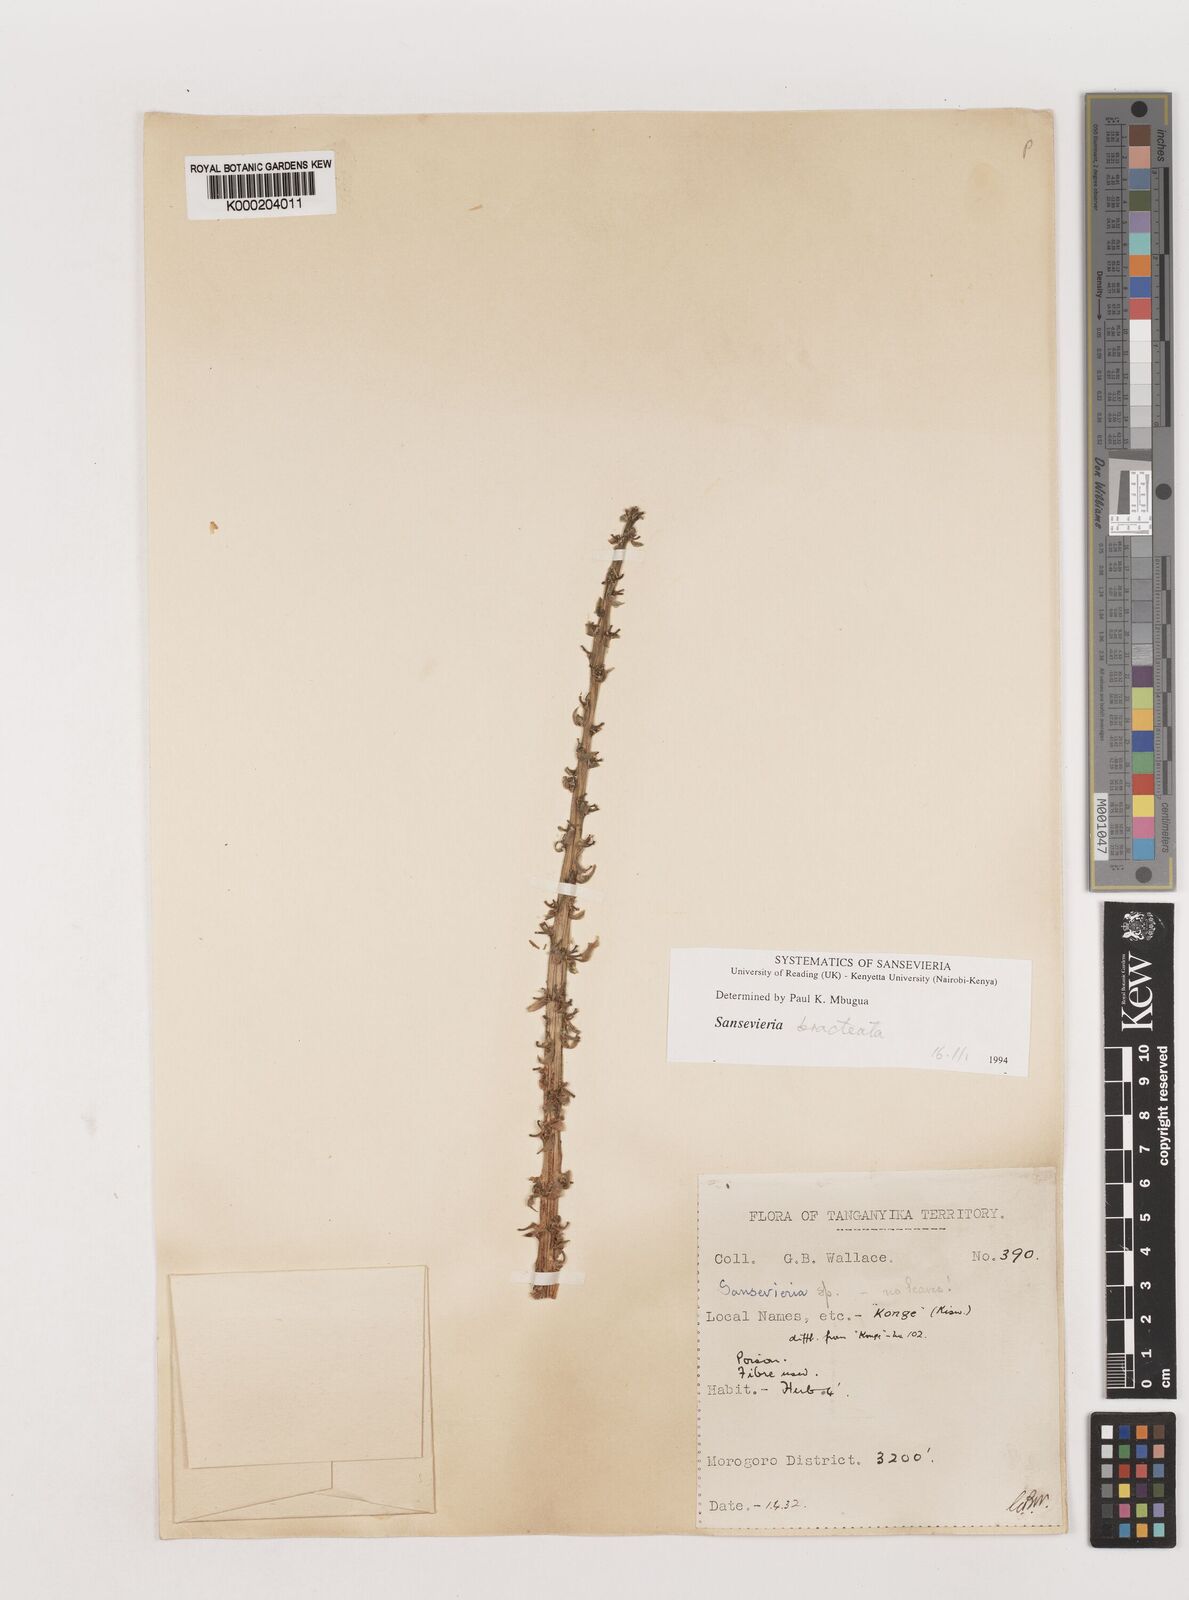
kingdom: Plantae
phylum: Tracheophyta
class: Liliopsida
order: Asparagales
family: Asparagaceae
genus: Dracaena
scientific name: Dracaena
